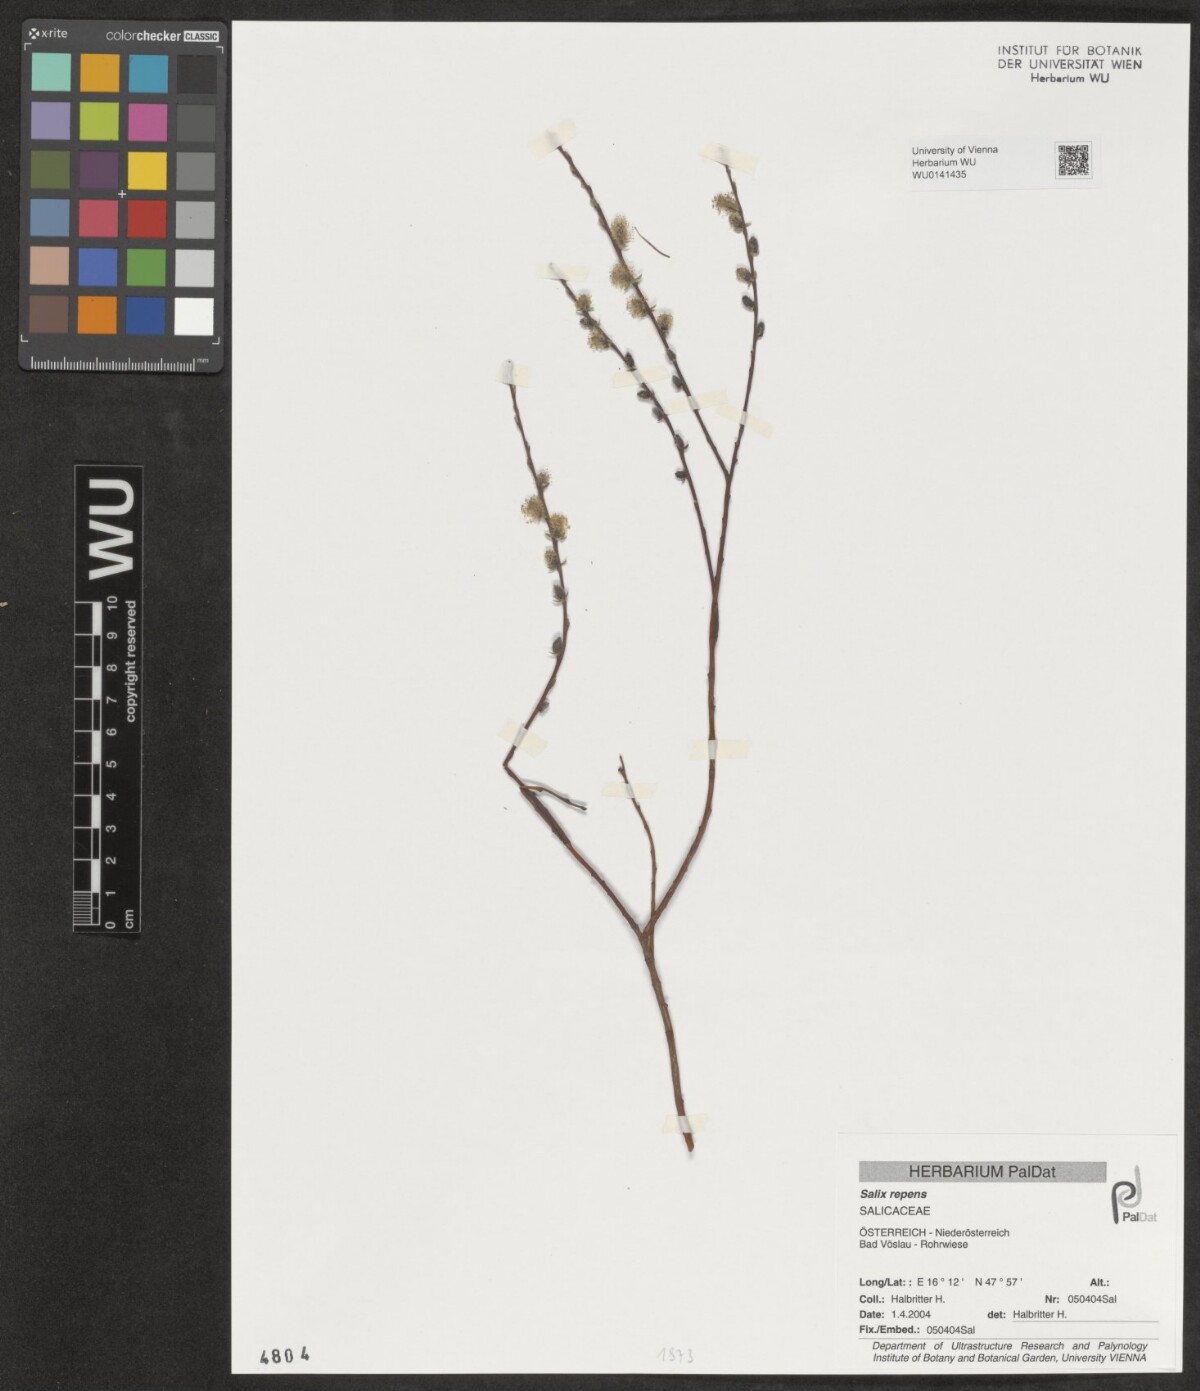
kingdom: Plantae
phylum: Tracheophyta
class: Magnoliopsida
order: Malpighiales
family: Salicaceae
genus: Salix
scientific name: Salix repens
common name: Creeping willow
